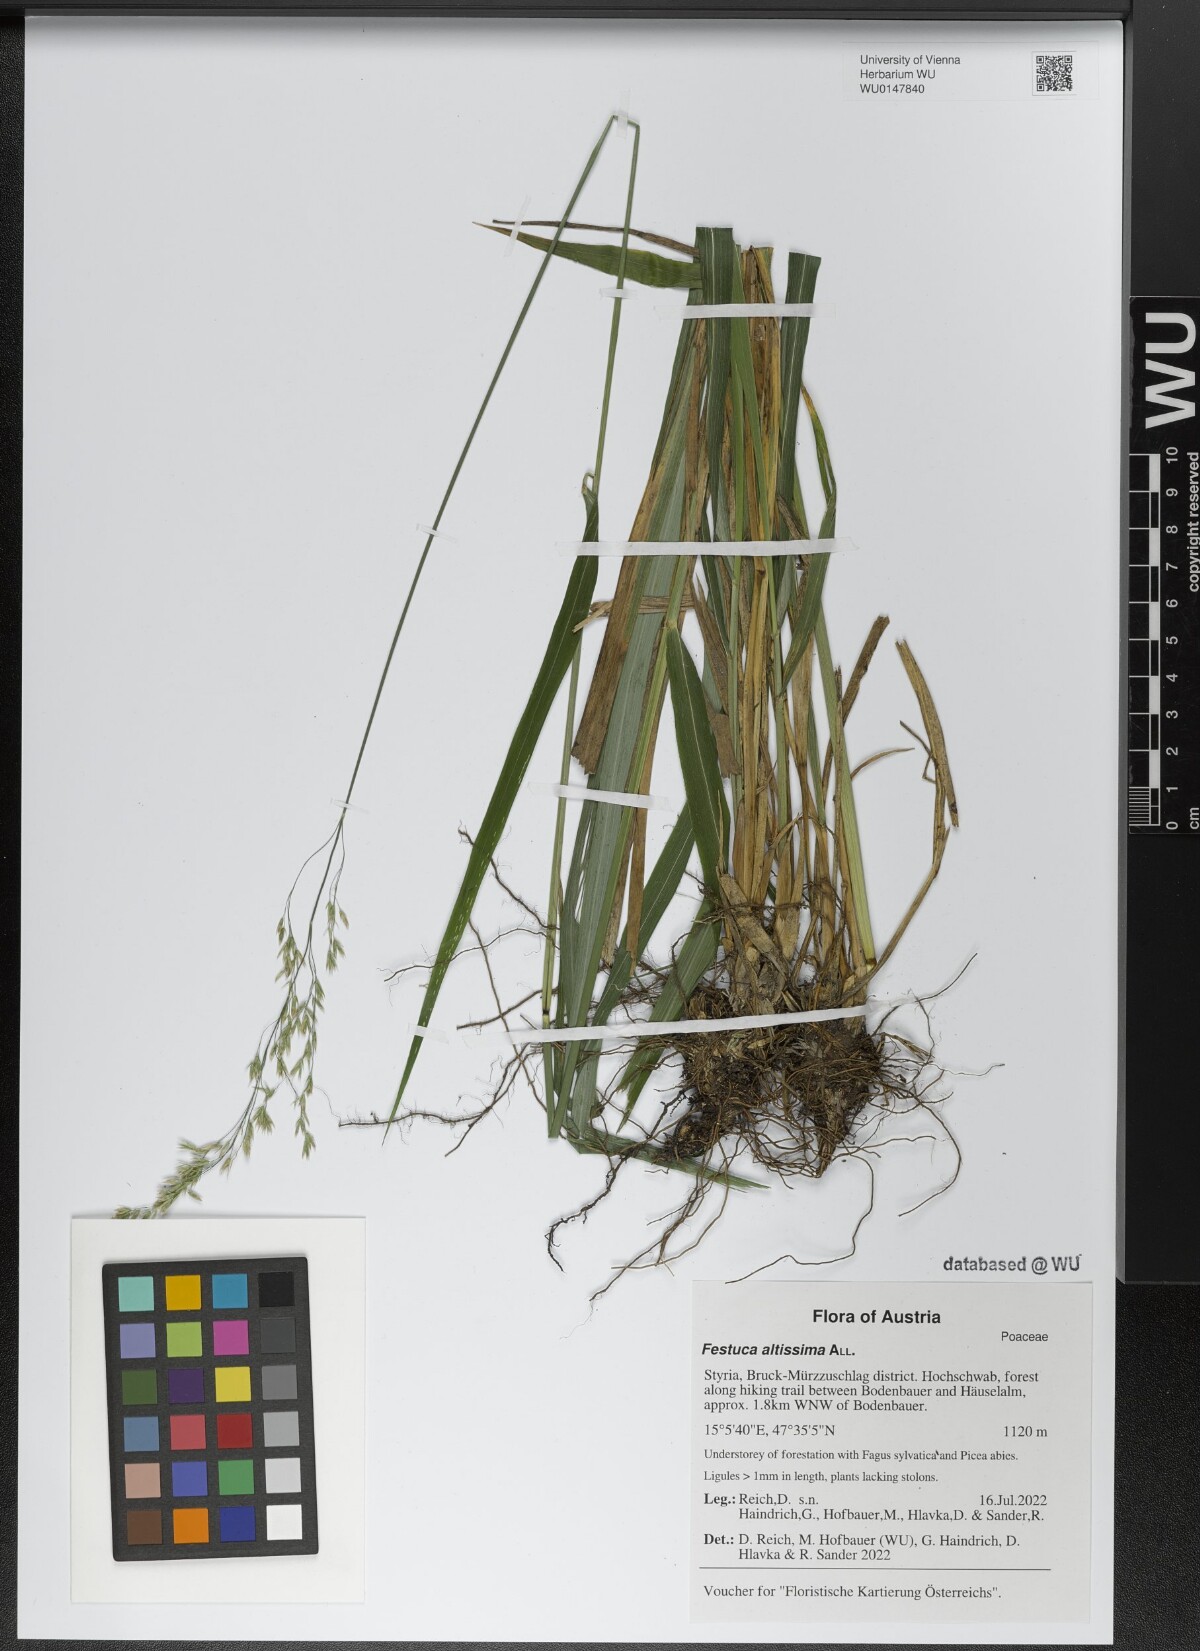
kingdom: Plantae
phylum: Tracheophyta
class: Liliopsida
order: Poales
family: Poaceae
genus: Festuca
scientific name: Festuca altissima
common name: Wood fescue
